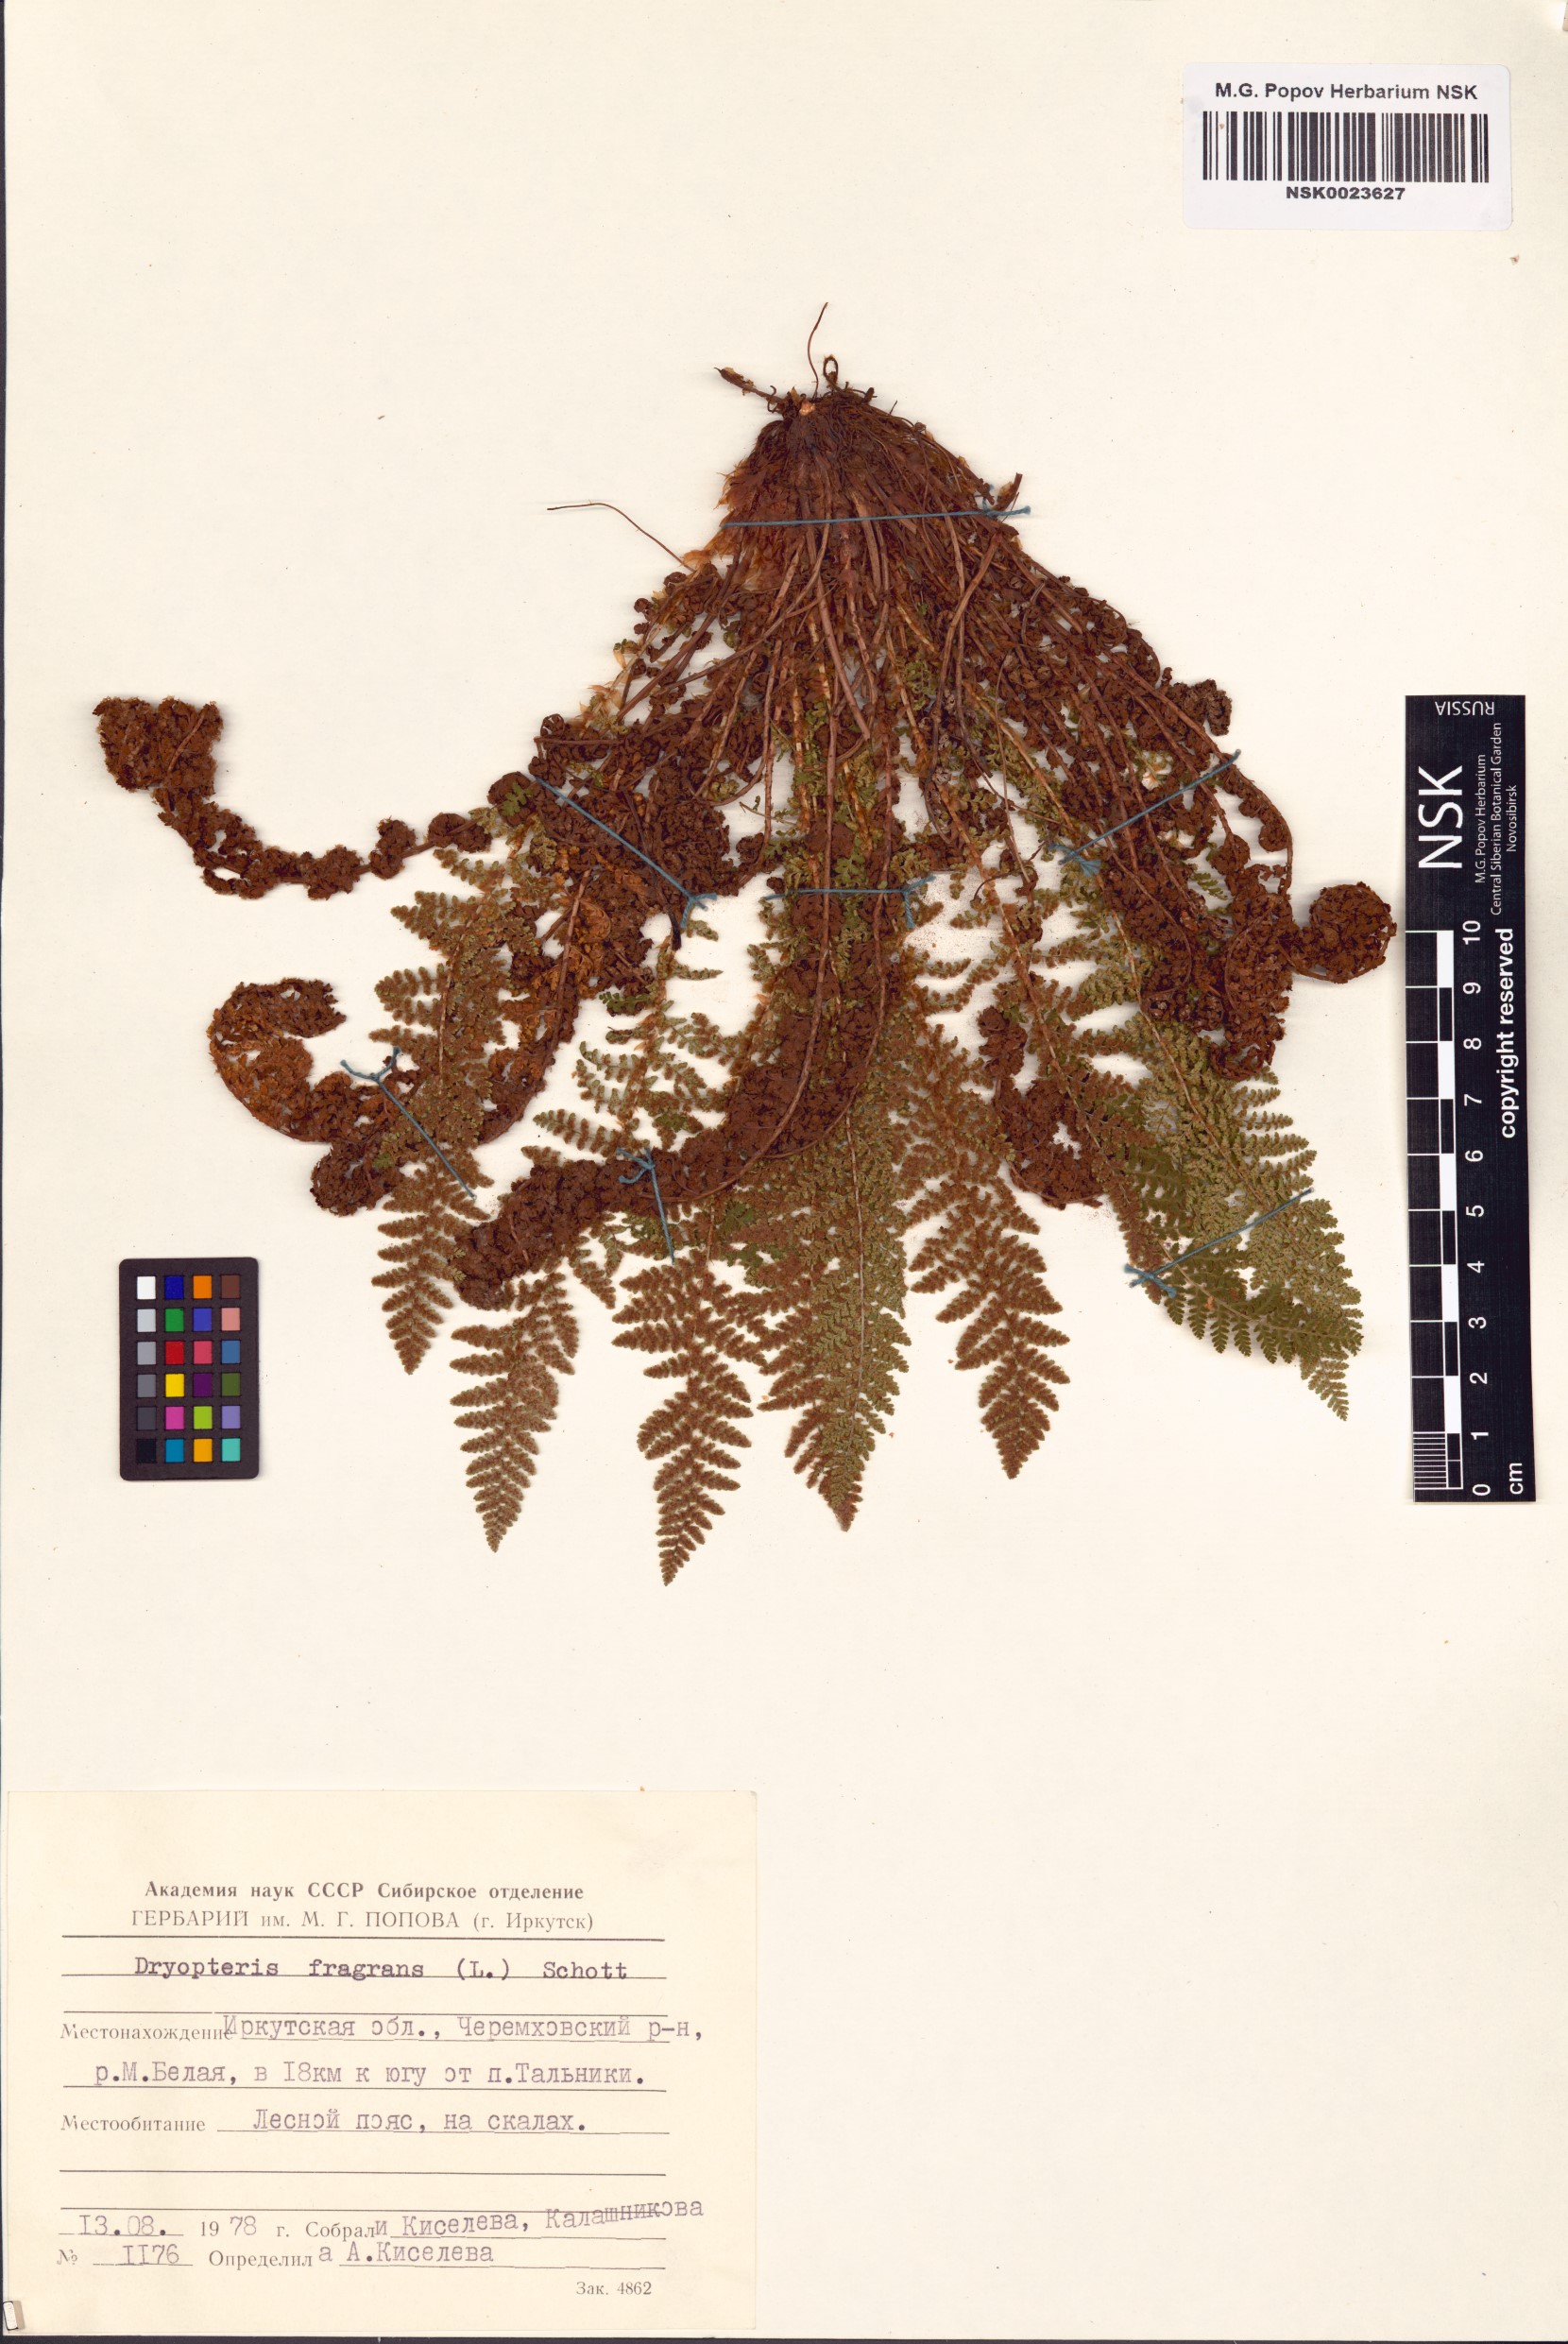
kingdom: Plantae
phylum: Tracheophyta
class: Polypodiopsida
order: Polypodiales
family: Dryopteridaceae
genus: Dryopteris
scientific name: Dryopteris fragrans
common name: Fragrant wood fern
